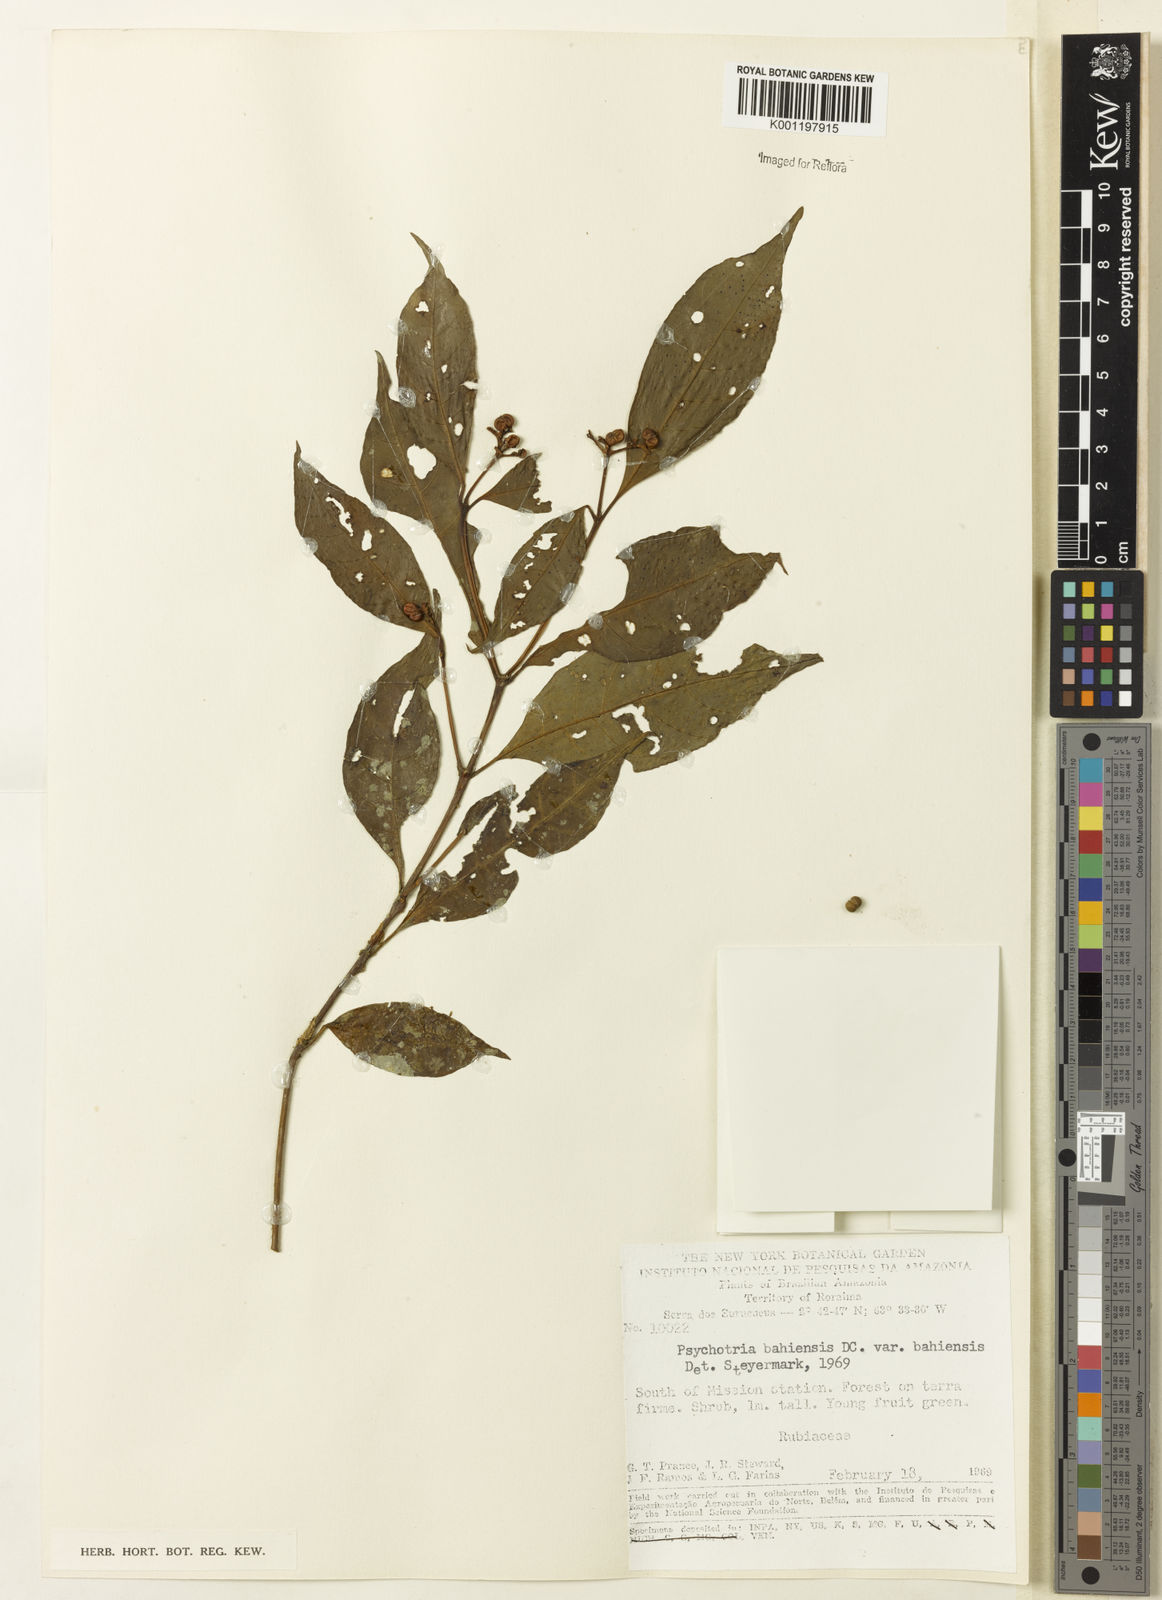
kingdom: Plantae
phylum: Tracheophyta
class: Magnoliopsida
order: Gentianales
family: Rubiaceae
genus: Psychotria
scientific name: Psychotria bahiensis
